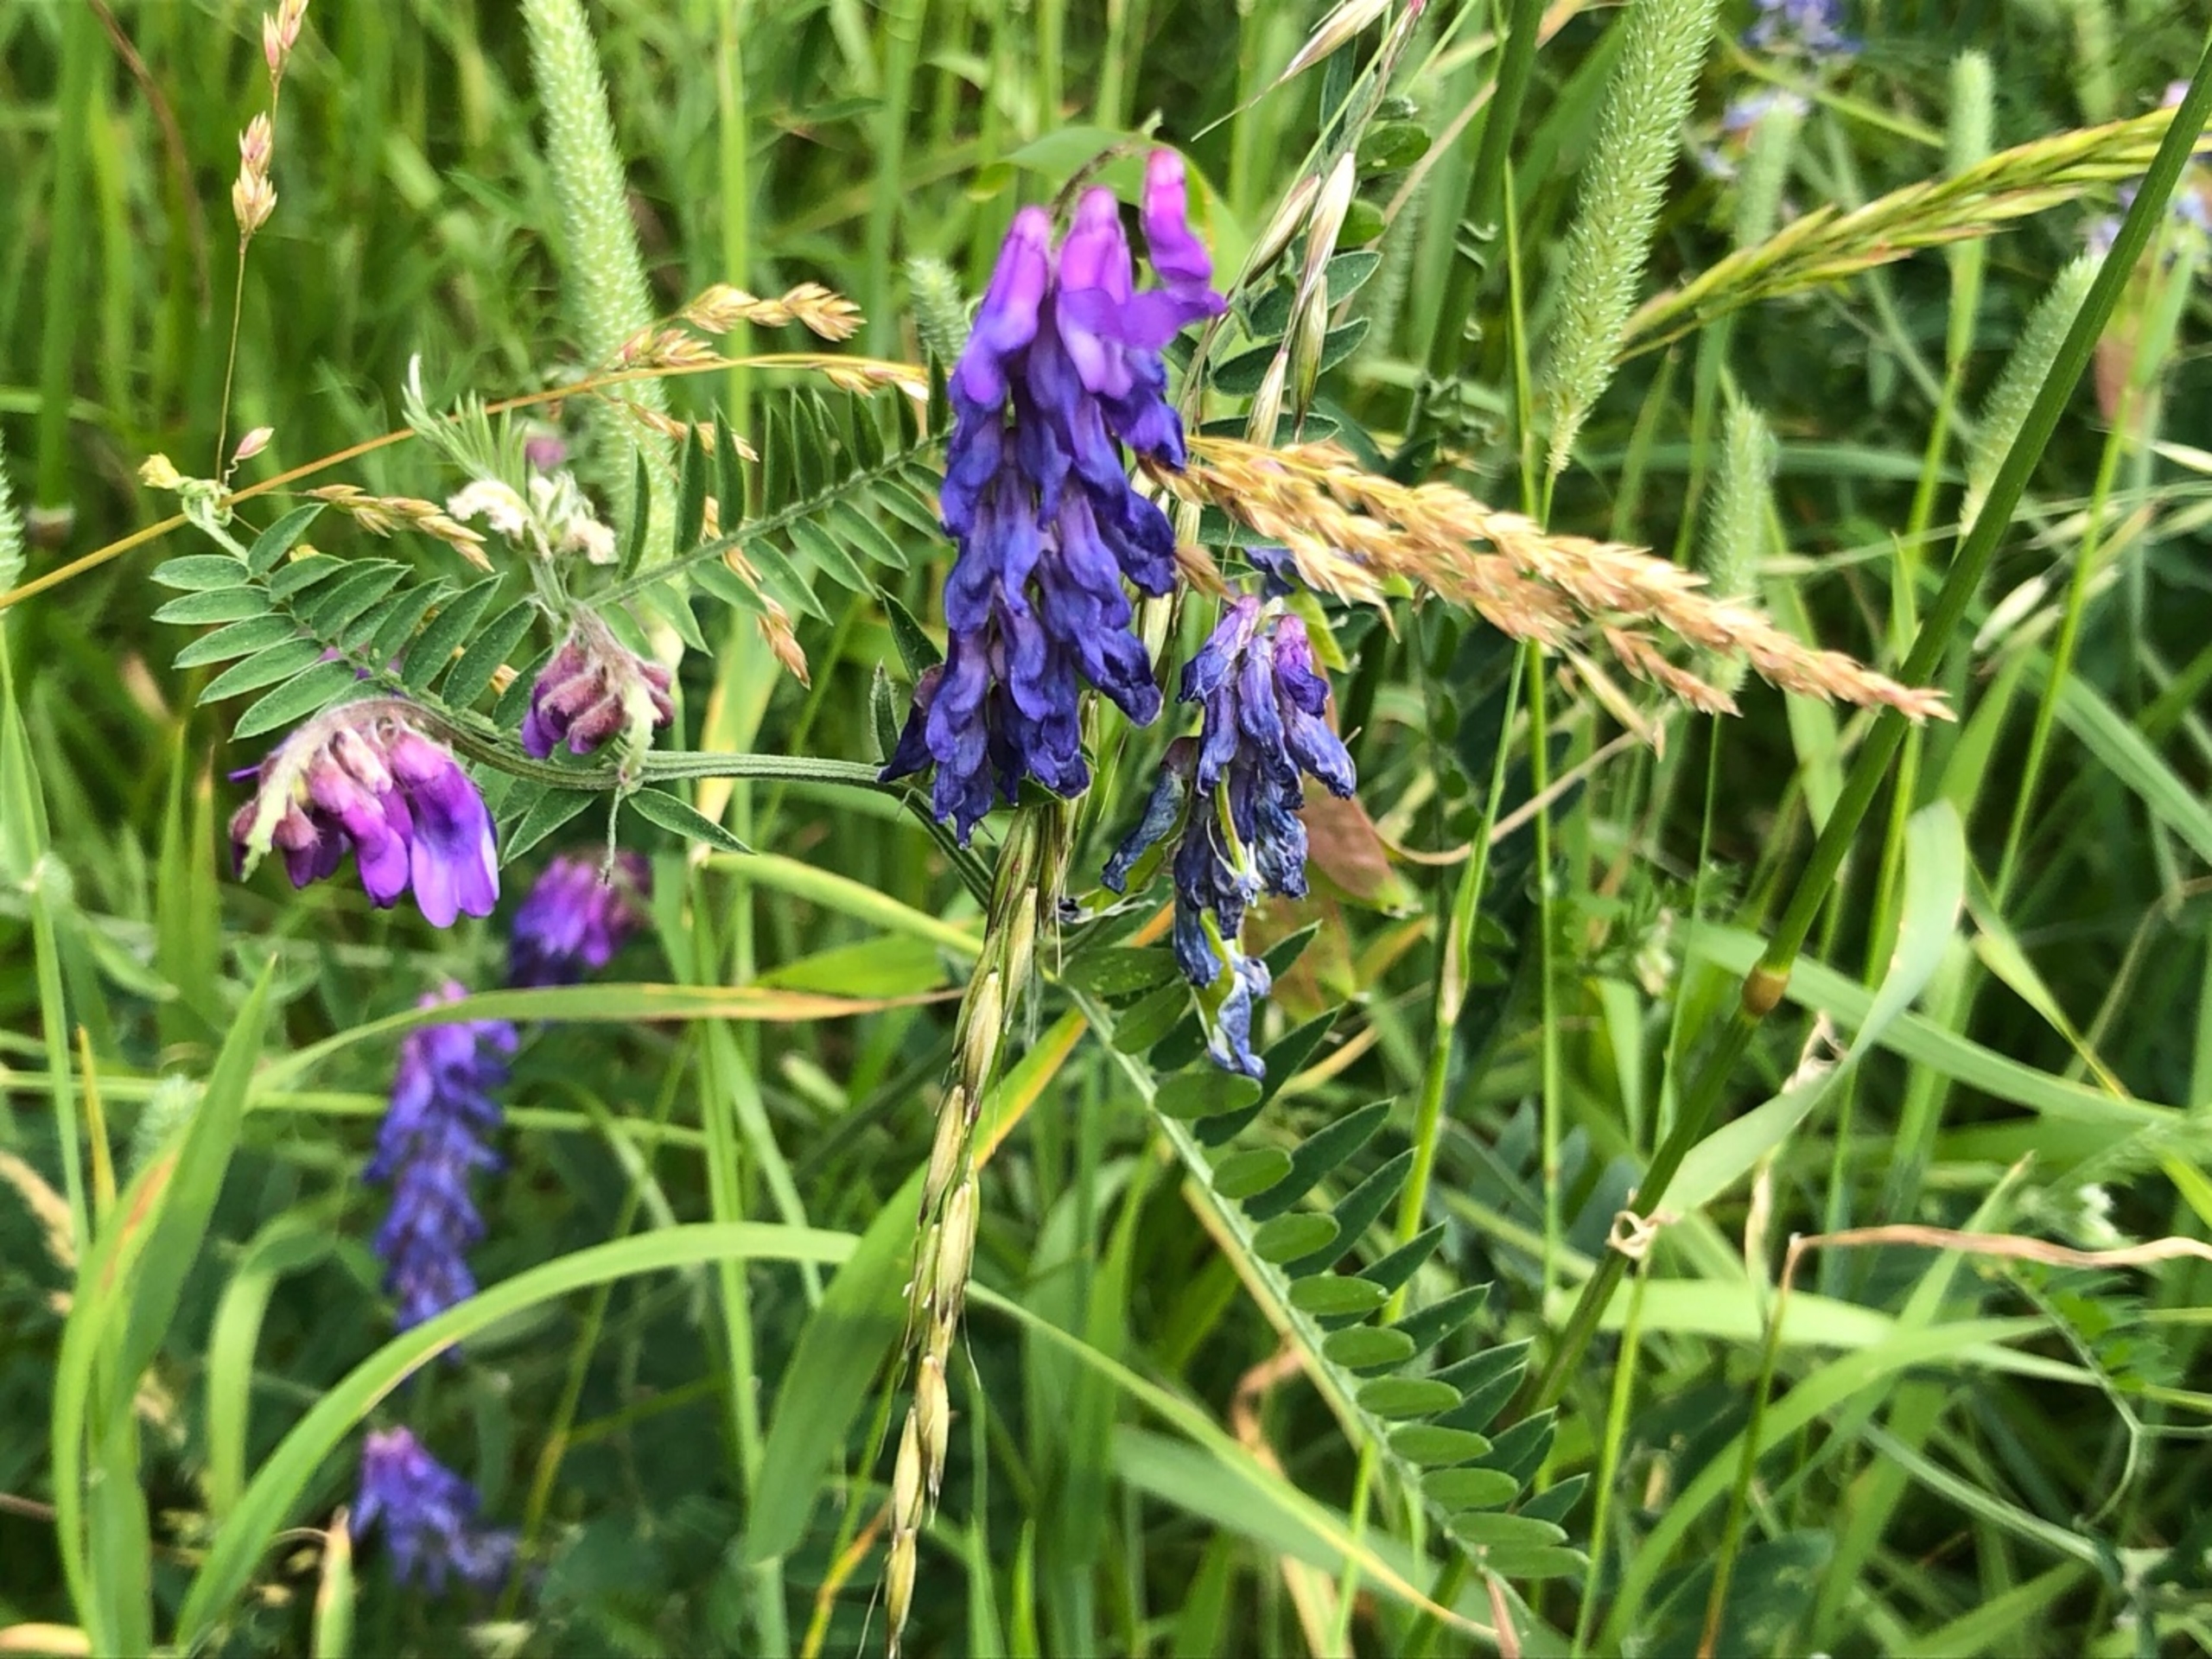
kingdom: Plantae
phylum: Tracheophyta
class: Magnoliopsida
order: Fabales
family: Fabaceae
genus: Vicia
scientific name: Vicia cracca
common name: Muse-vikke
